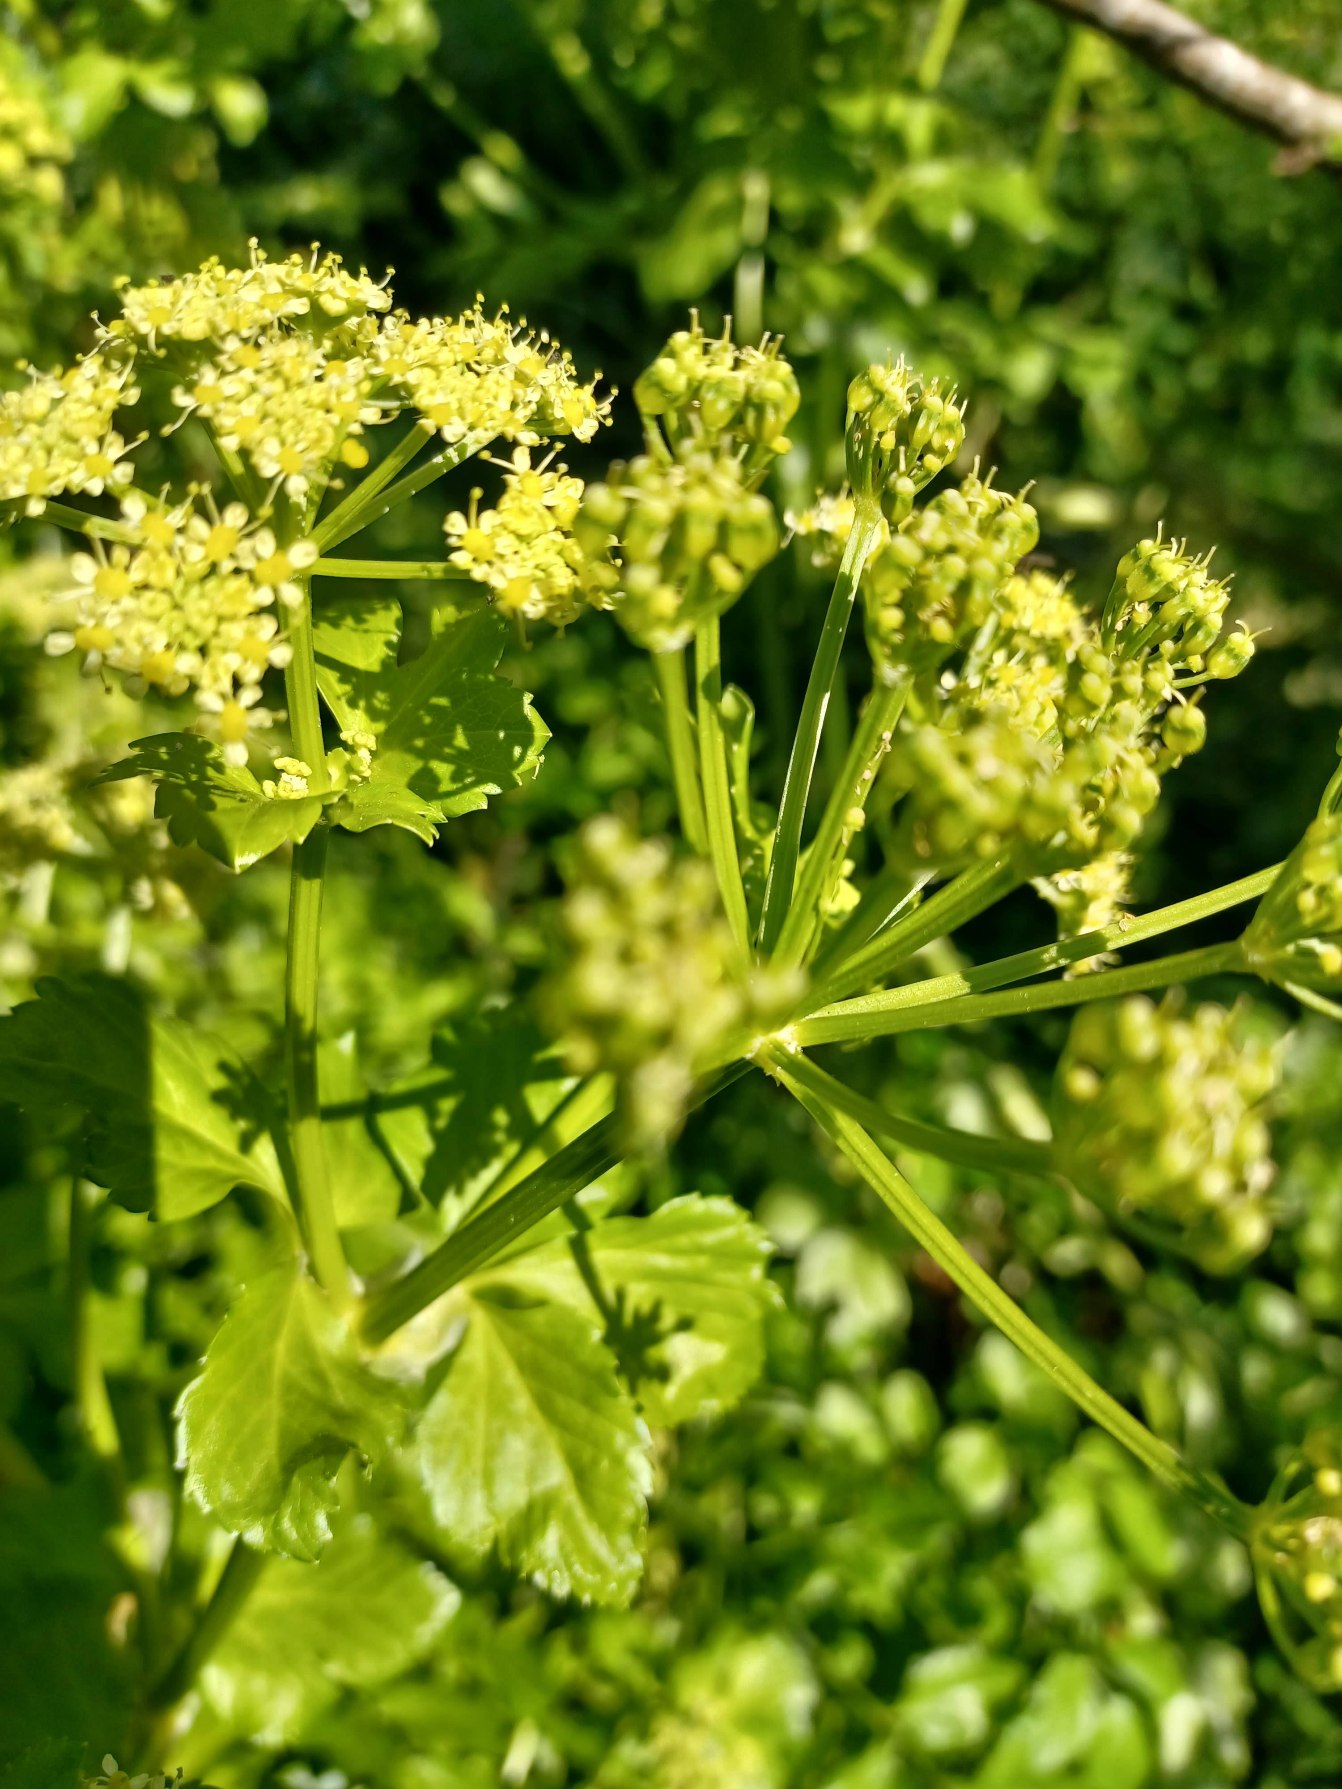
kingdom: Plantae
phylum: Tracheophyta
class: Magnoliopsida
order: Apiales
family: Apiaceae
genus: Smyrnium
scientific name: Smyrnium olusatrum
